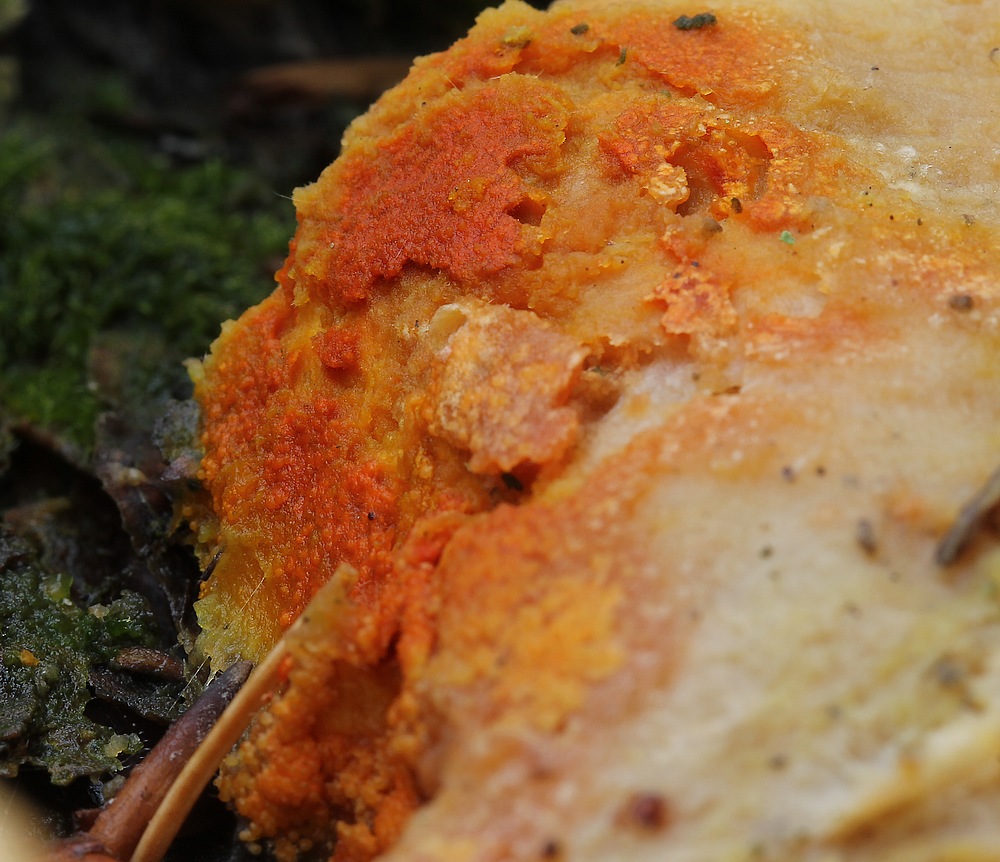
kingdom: Fungi
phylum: Ascomycota
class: Sordariomycetes
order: Hypocreales
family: Hypocreaceae
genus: Hypomyces
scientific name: Hypomyces aurantius
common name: almindelig snylteskorpe
